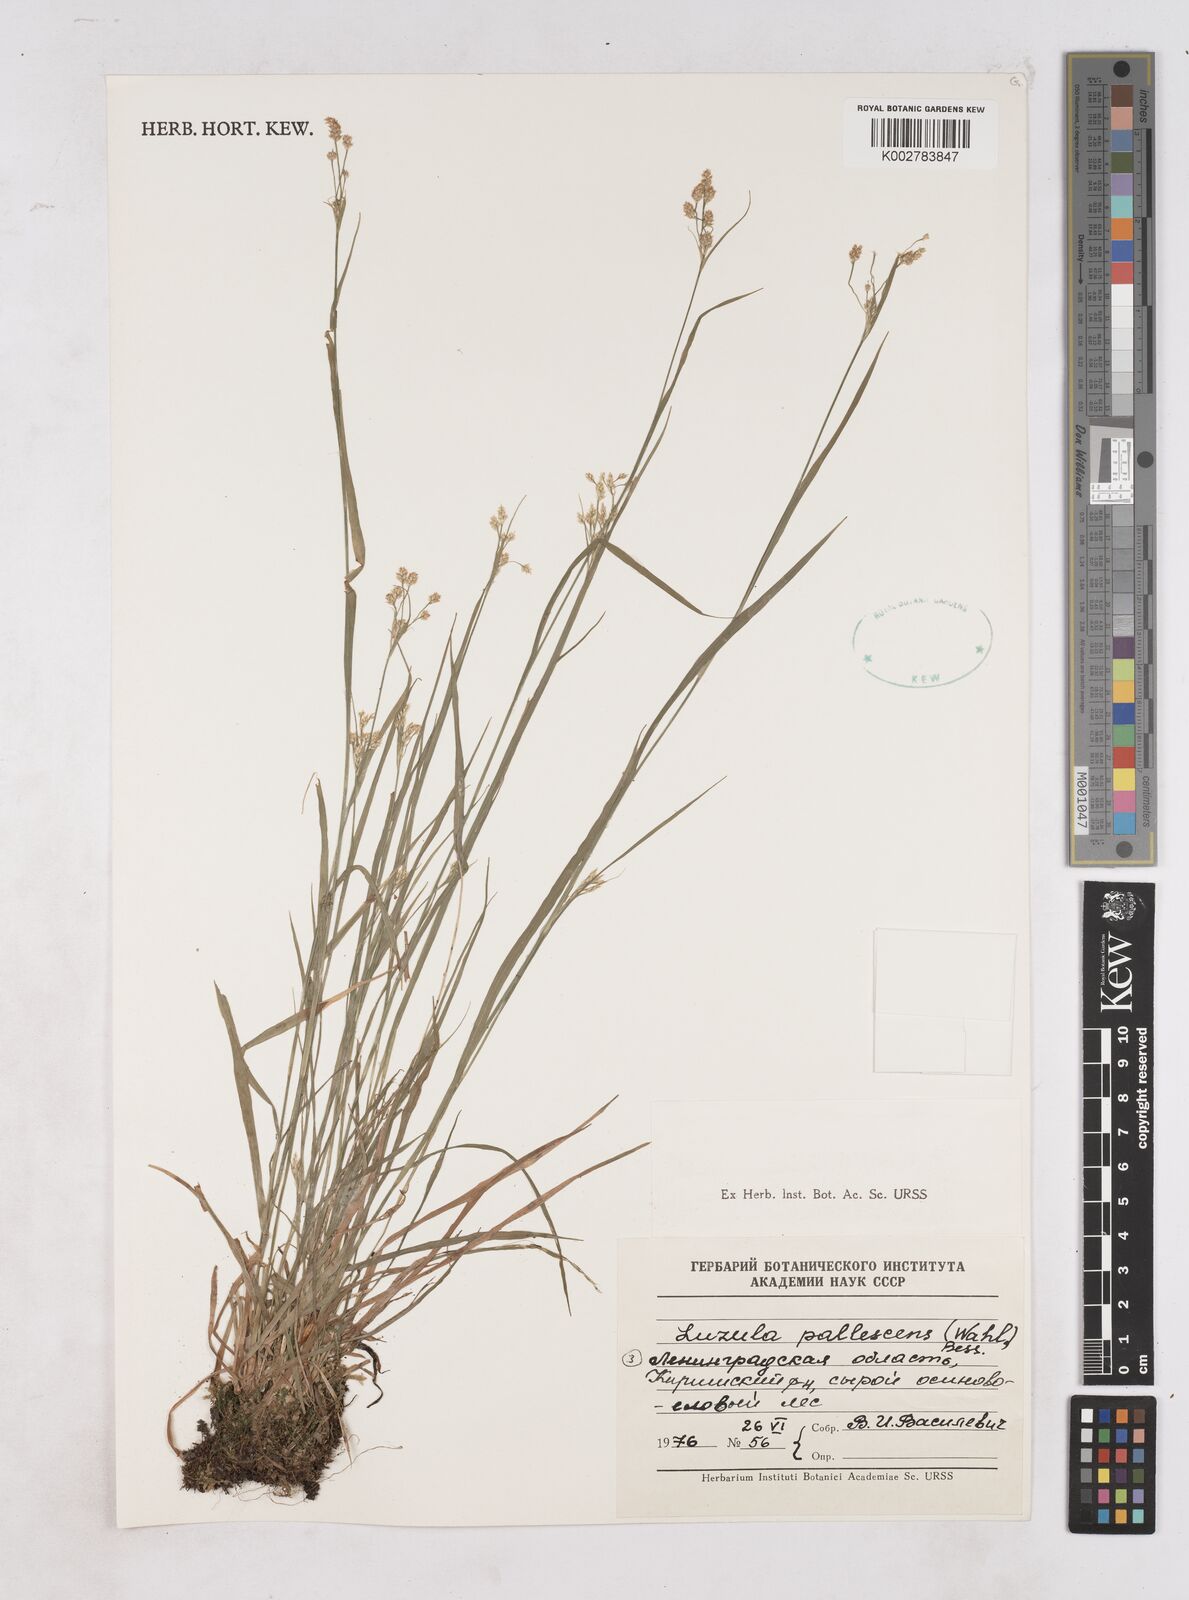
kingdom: Plantae
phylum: Tracheophyta
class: Liliopsida
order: Poales
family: Juncaceae
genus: Luzula
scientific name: Luzula
